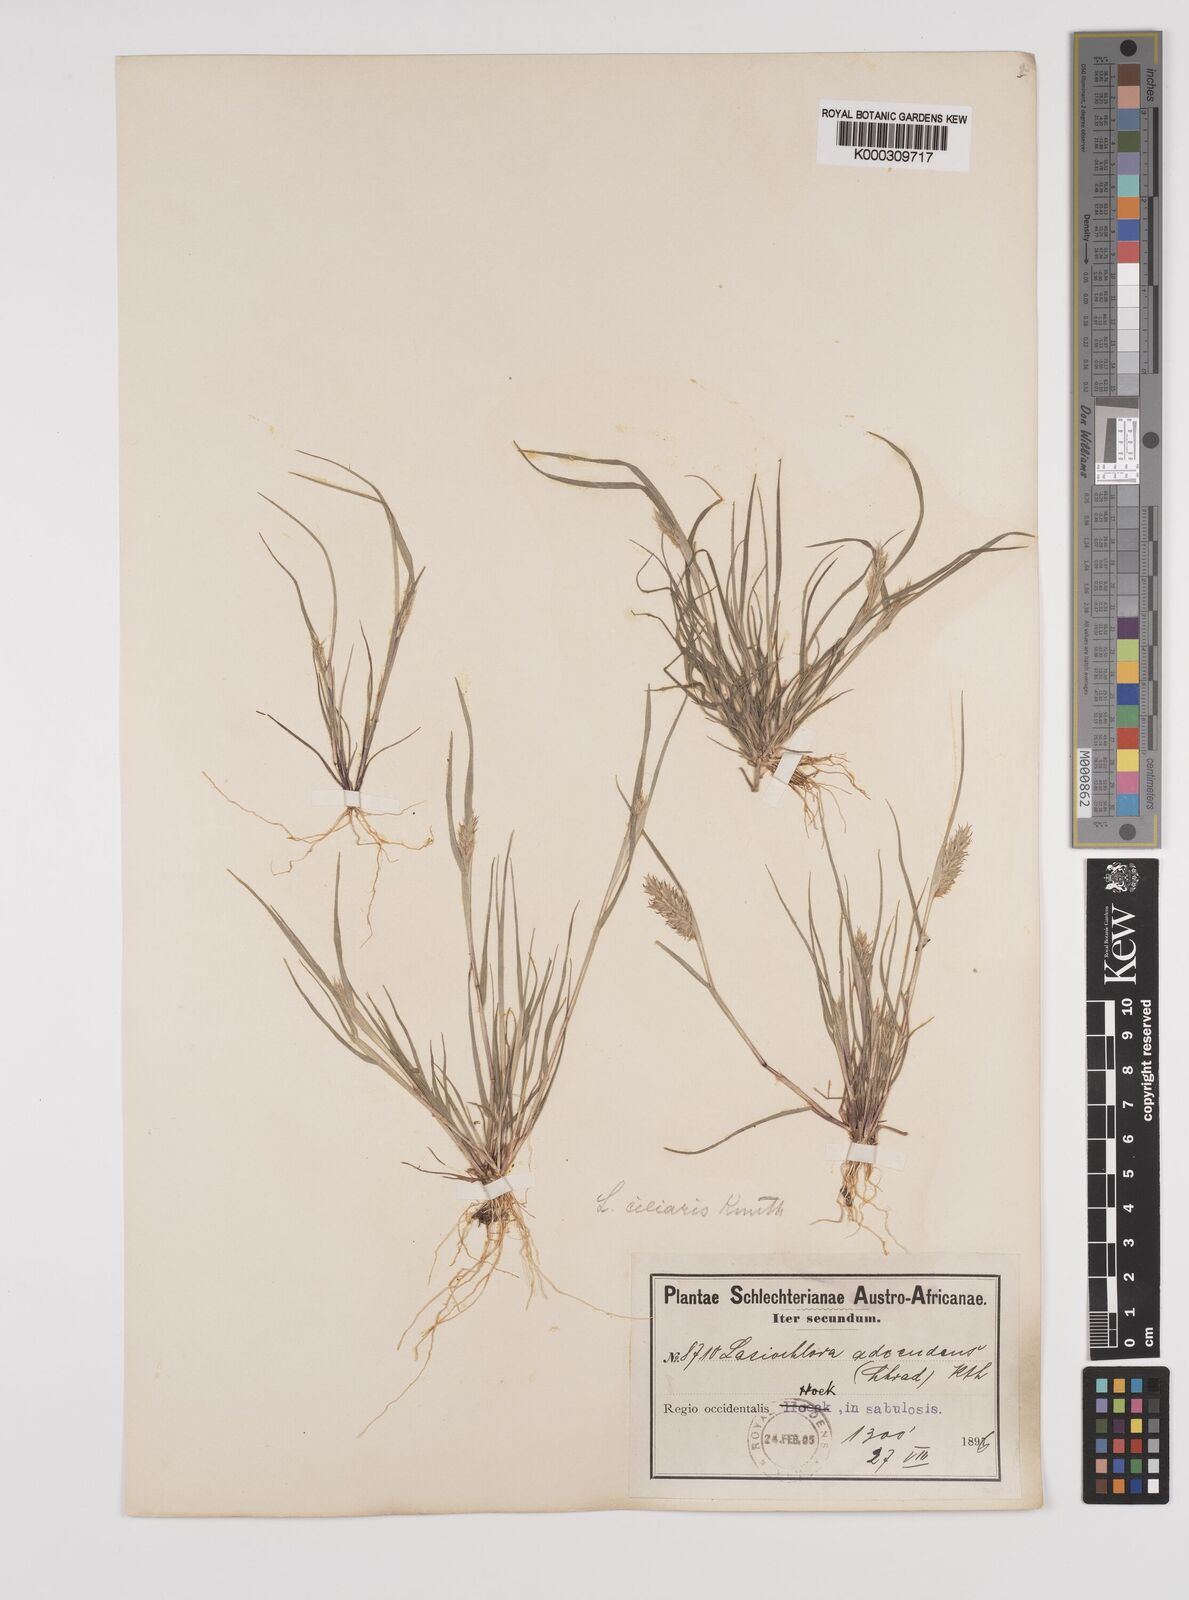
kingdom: Plantae
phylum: Tracheophyta
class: Liliopsida
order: Poales
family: Poaceae
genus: Tribolium
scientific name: Tribolium echinatum
